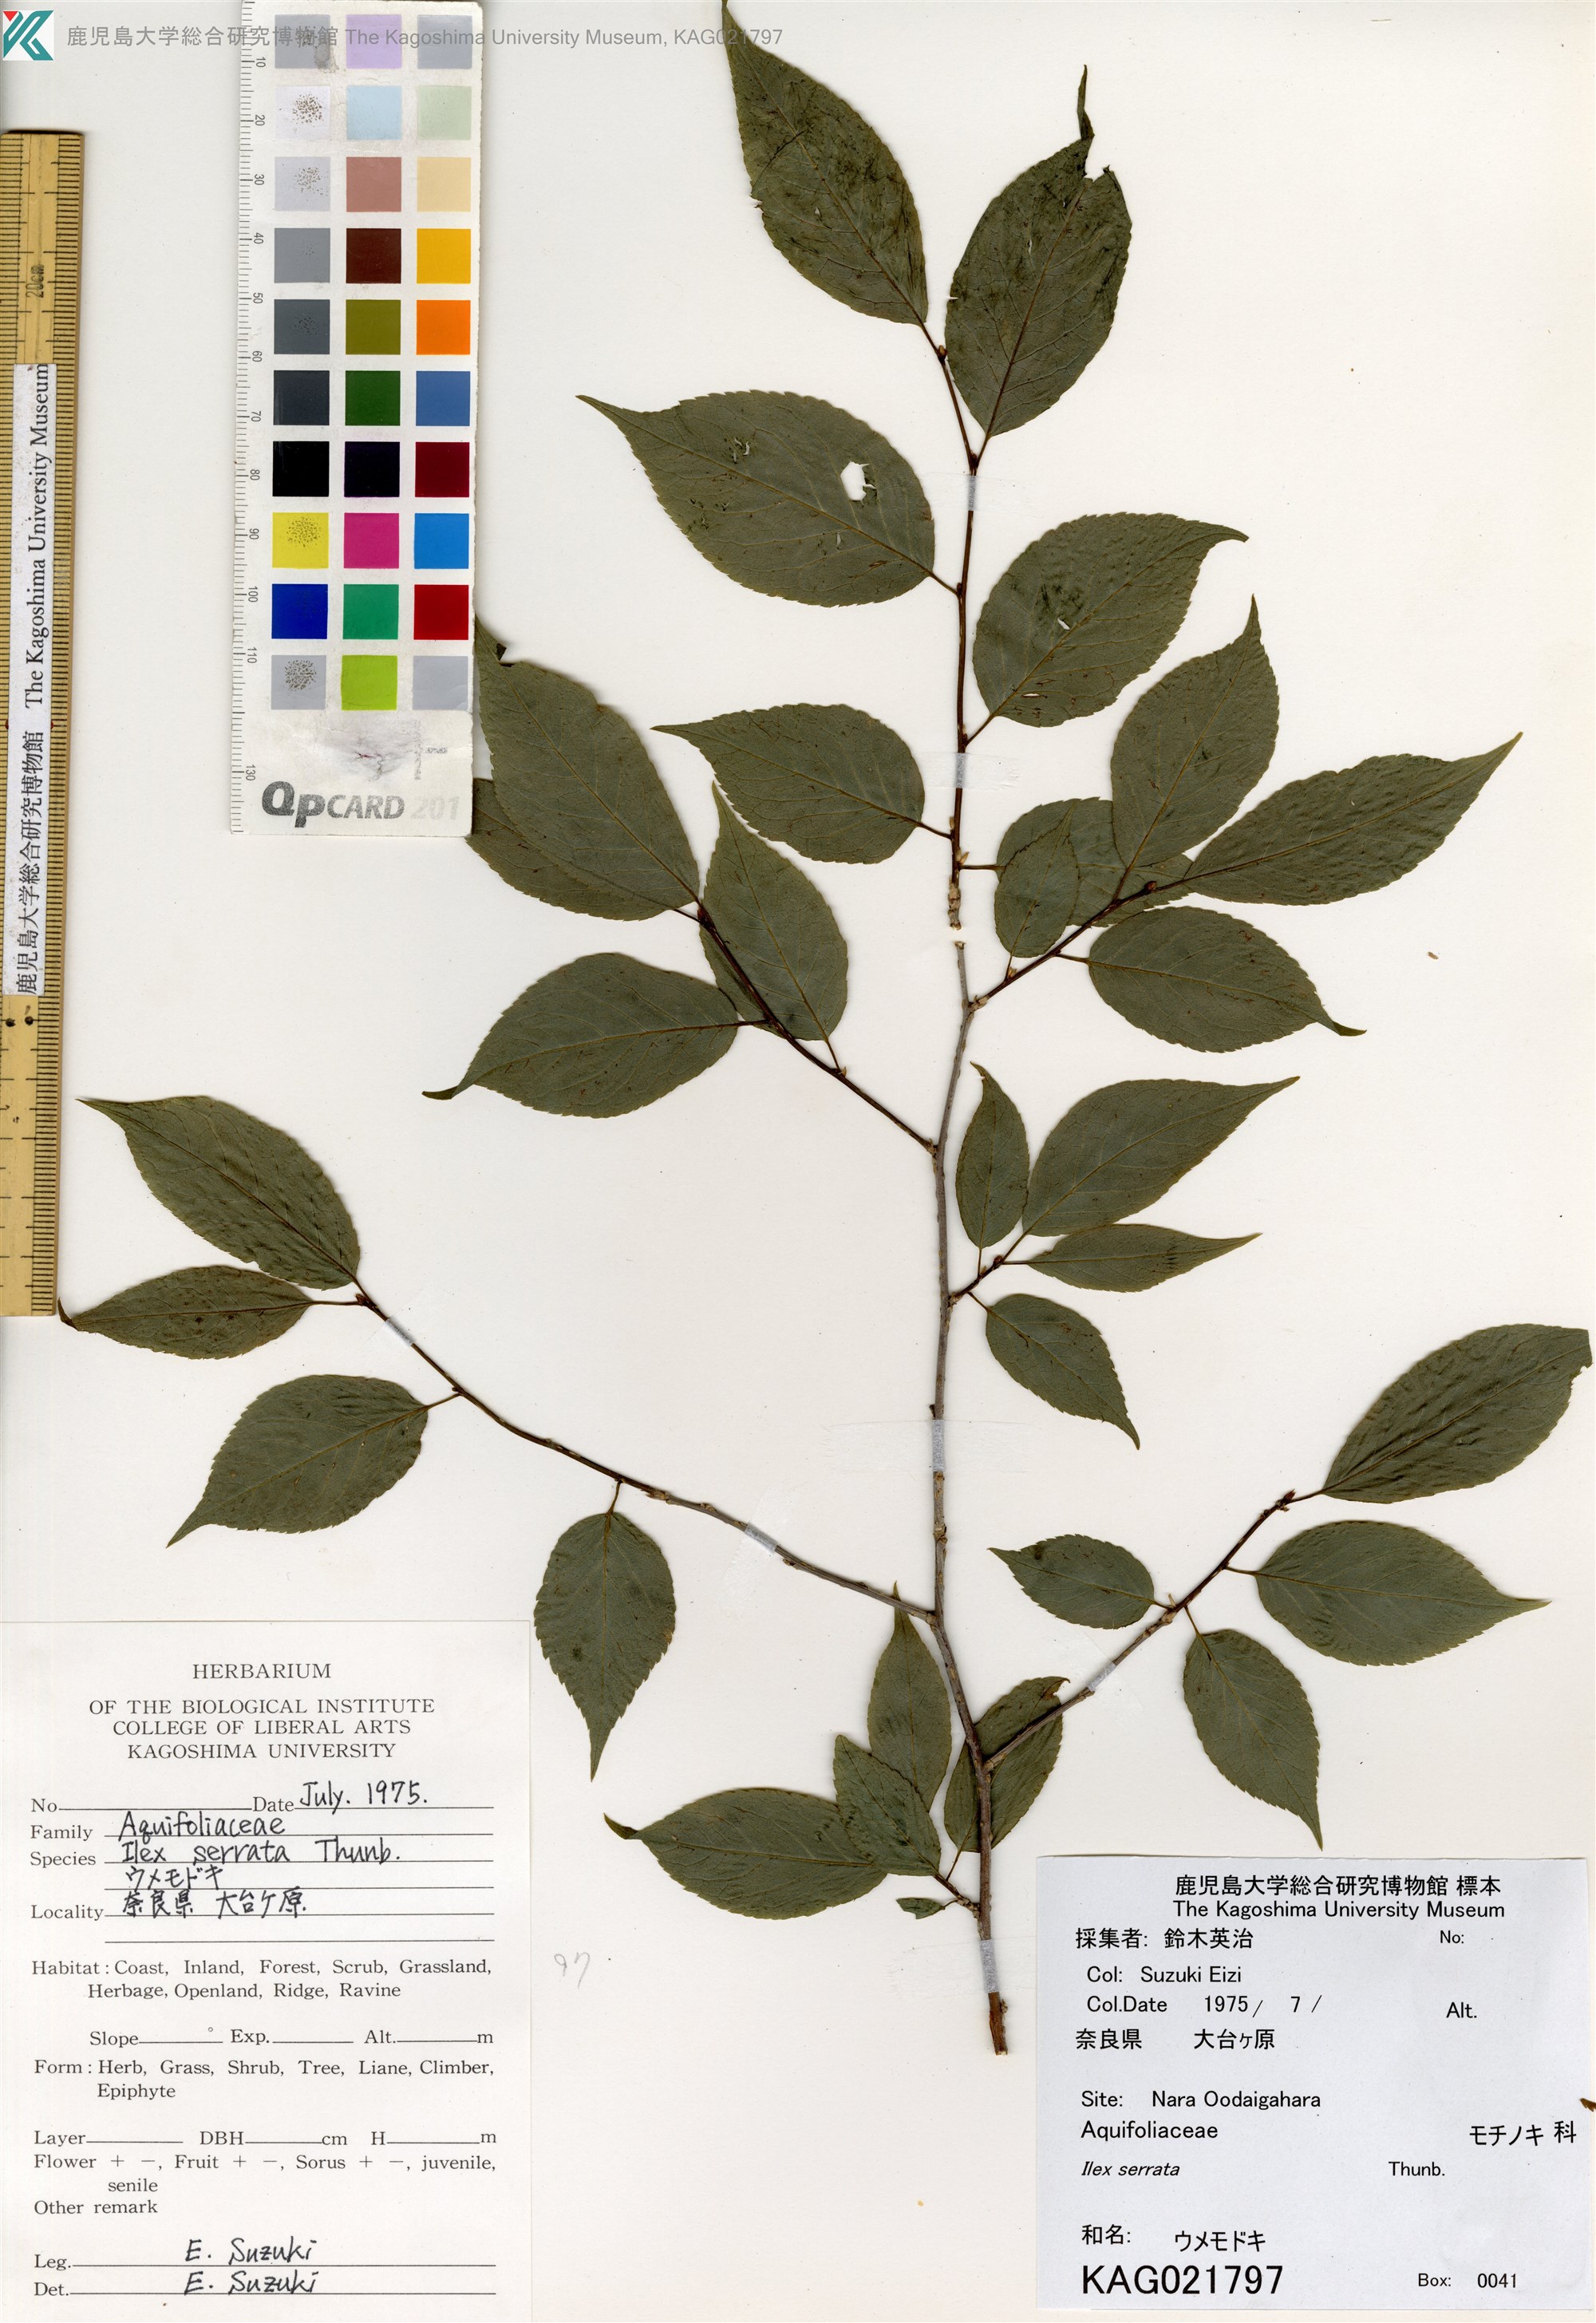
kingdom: Plantae
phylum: Tracheophyta
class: Magnoliopsida
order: Aquifoliales
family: Aquifoliaceae
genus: Ilex
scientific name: Ilex serrata
